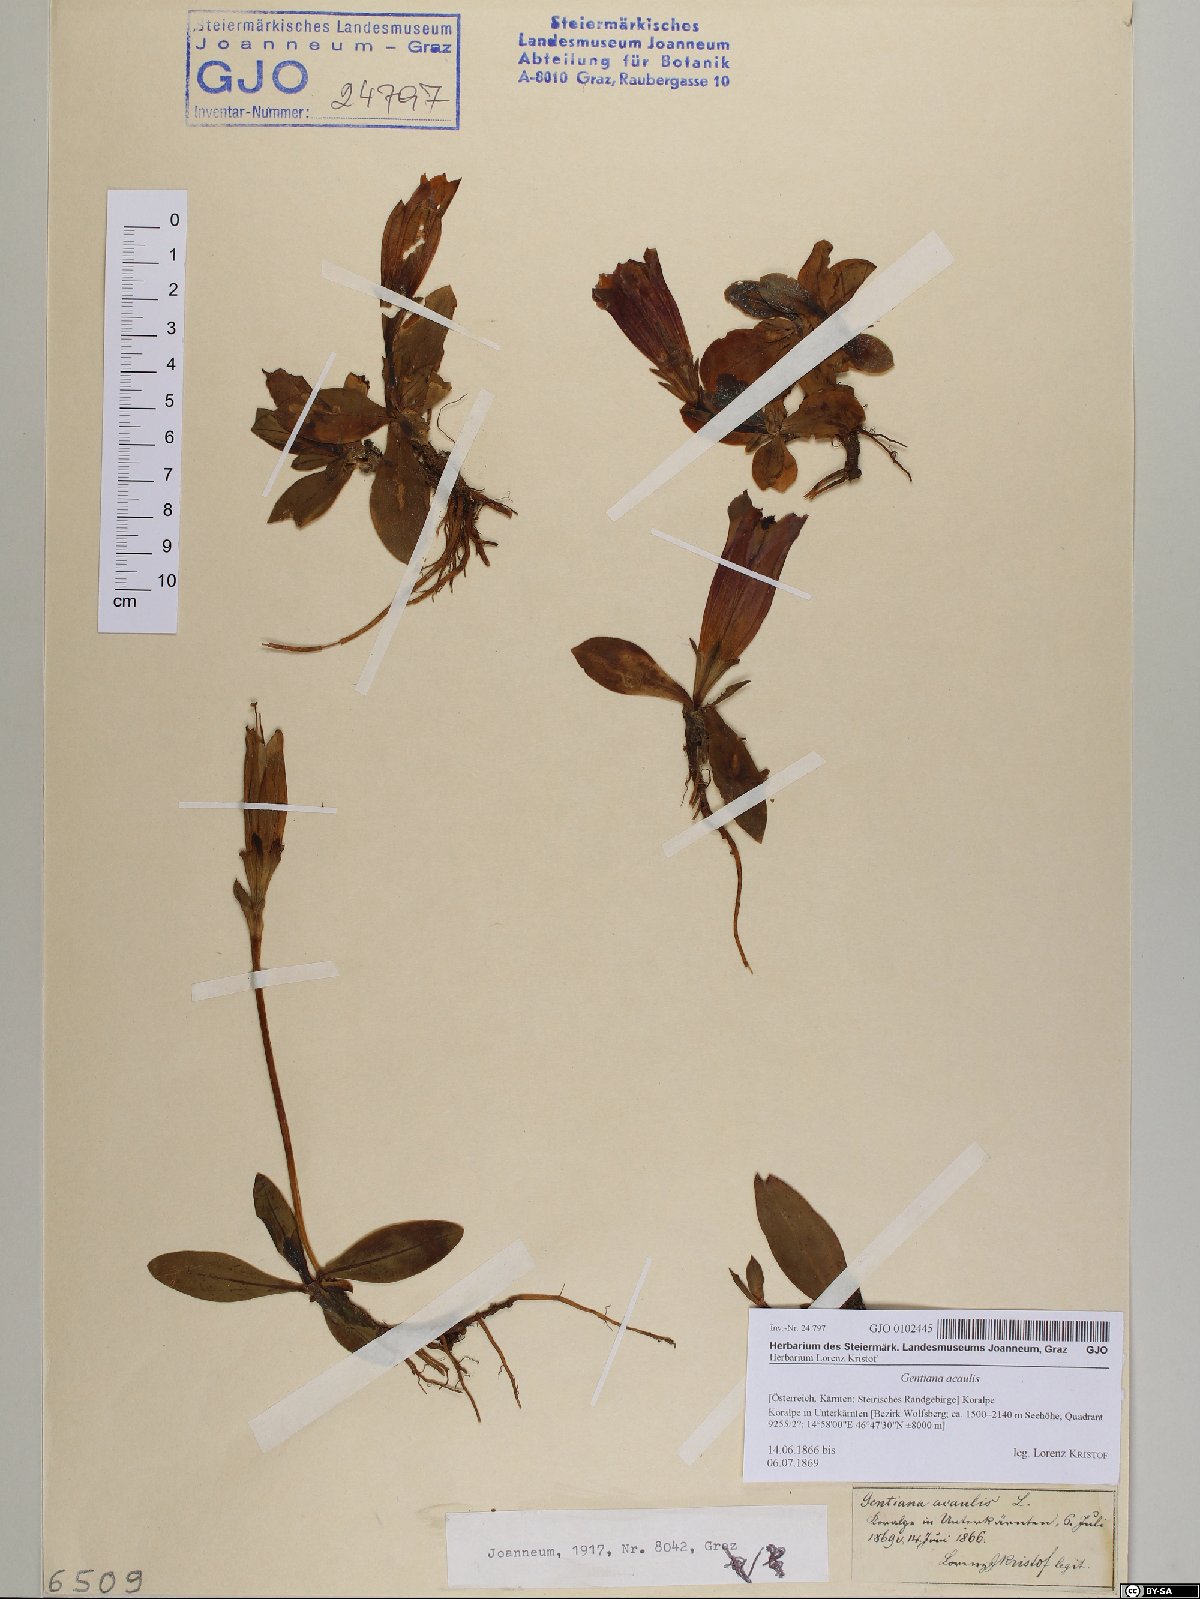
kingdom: Plantae
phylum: Tracheophyta
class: Magnoliopsida
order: Gentianales
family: Gentianaceae
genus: Gentiana
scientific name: Gentiana acaulis
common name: Trumpet gentian
